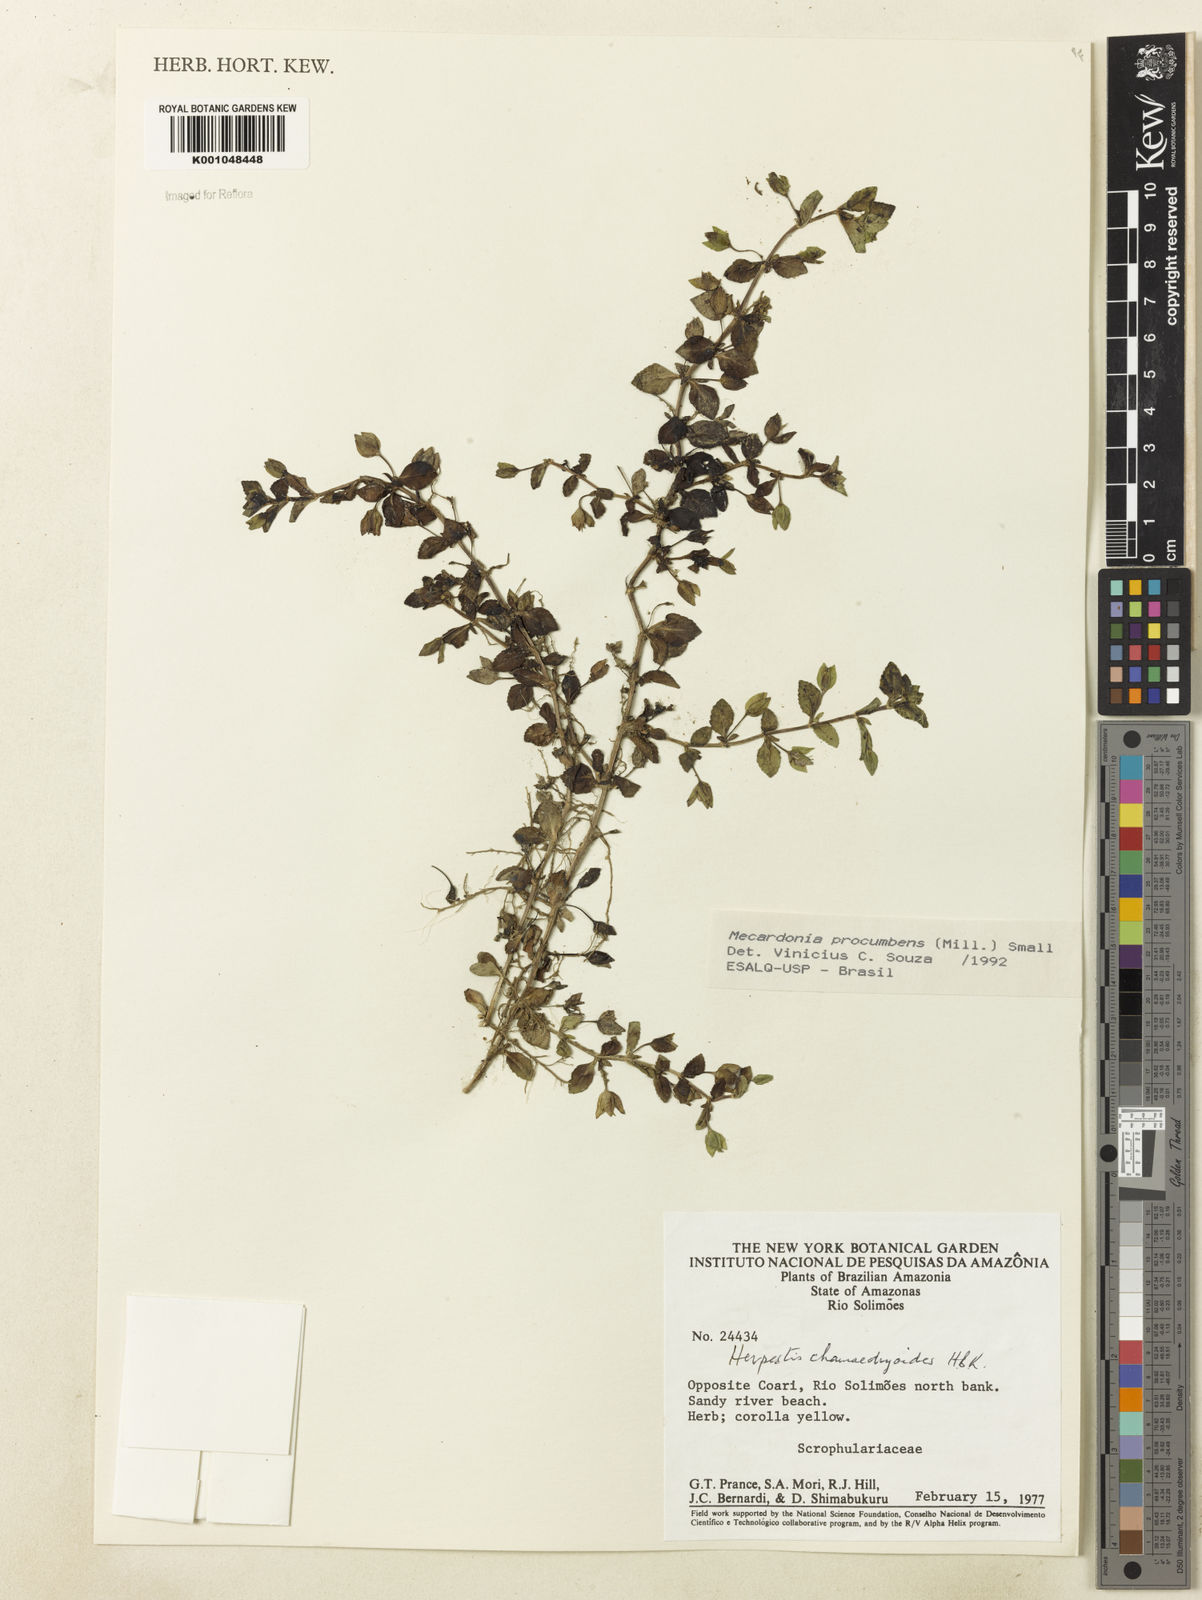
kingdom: Plantae
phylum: Tracheophyta
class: Magnoliopsida
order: Lamiales
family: Plantaginaceae
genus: Mecardonia
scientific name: Mecardonia procumbens
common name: Baby jump-up
